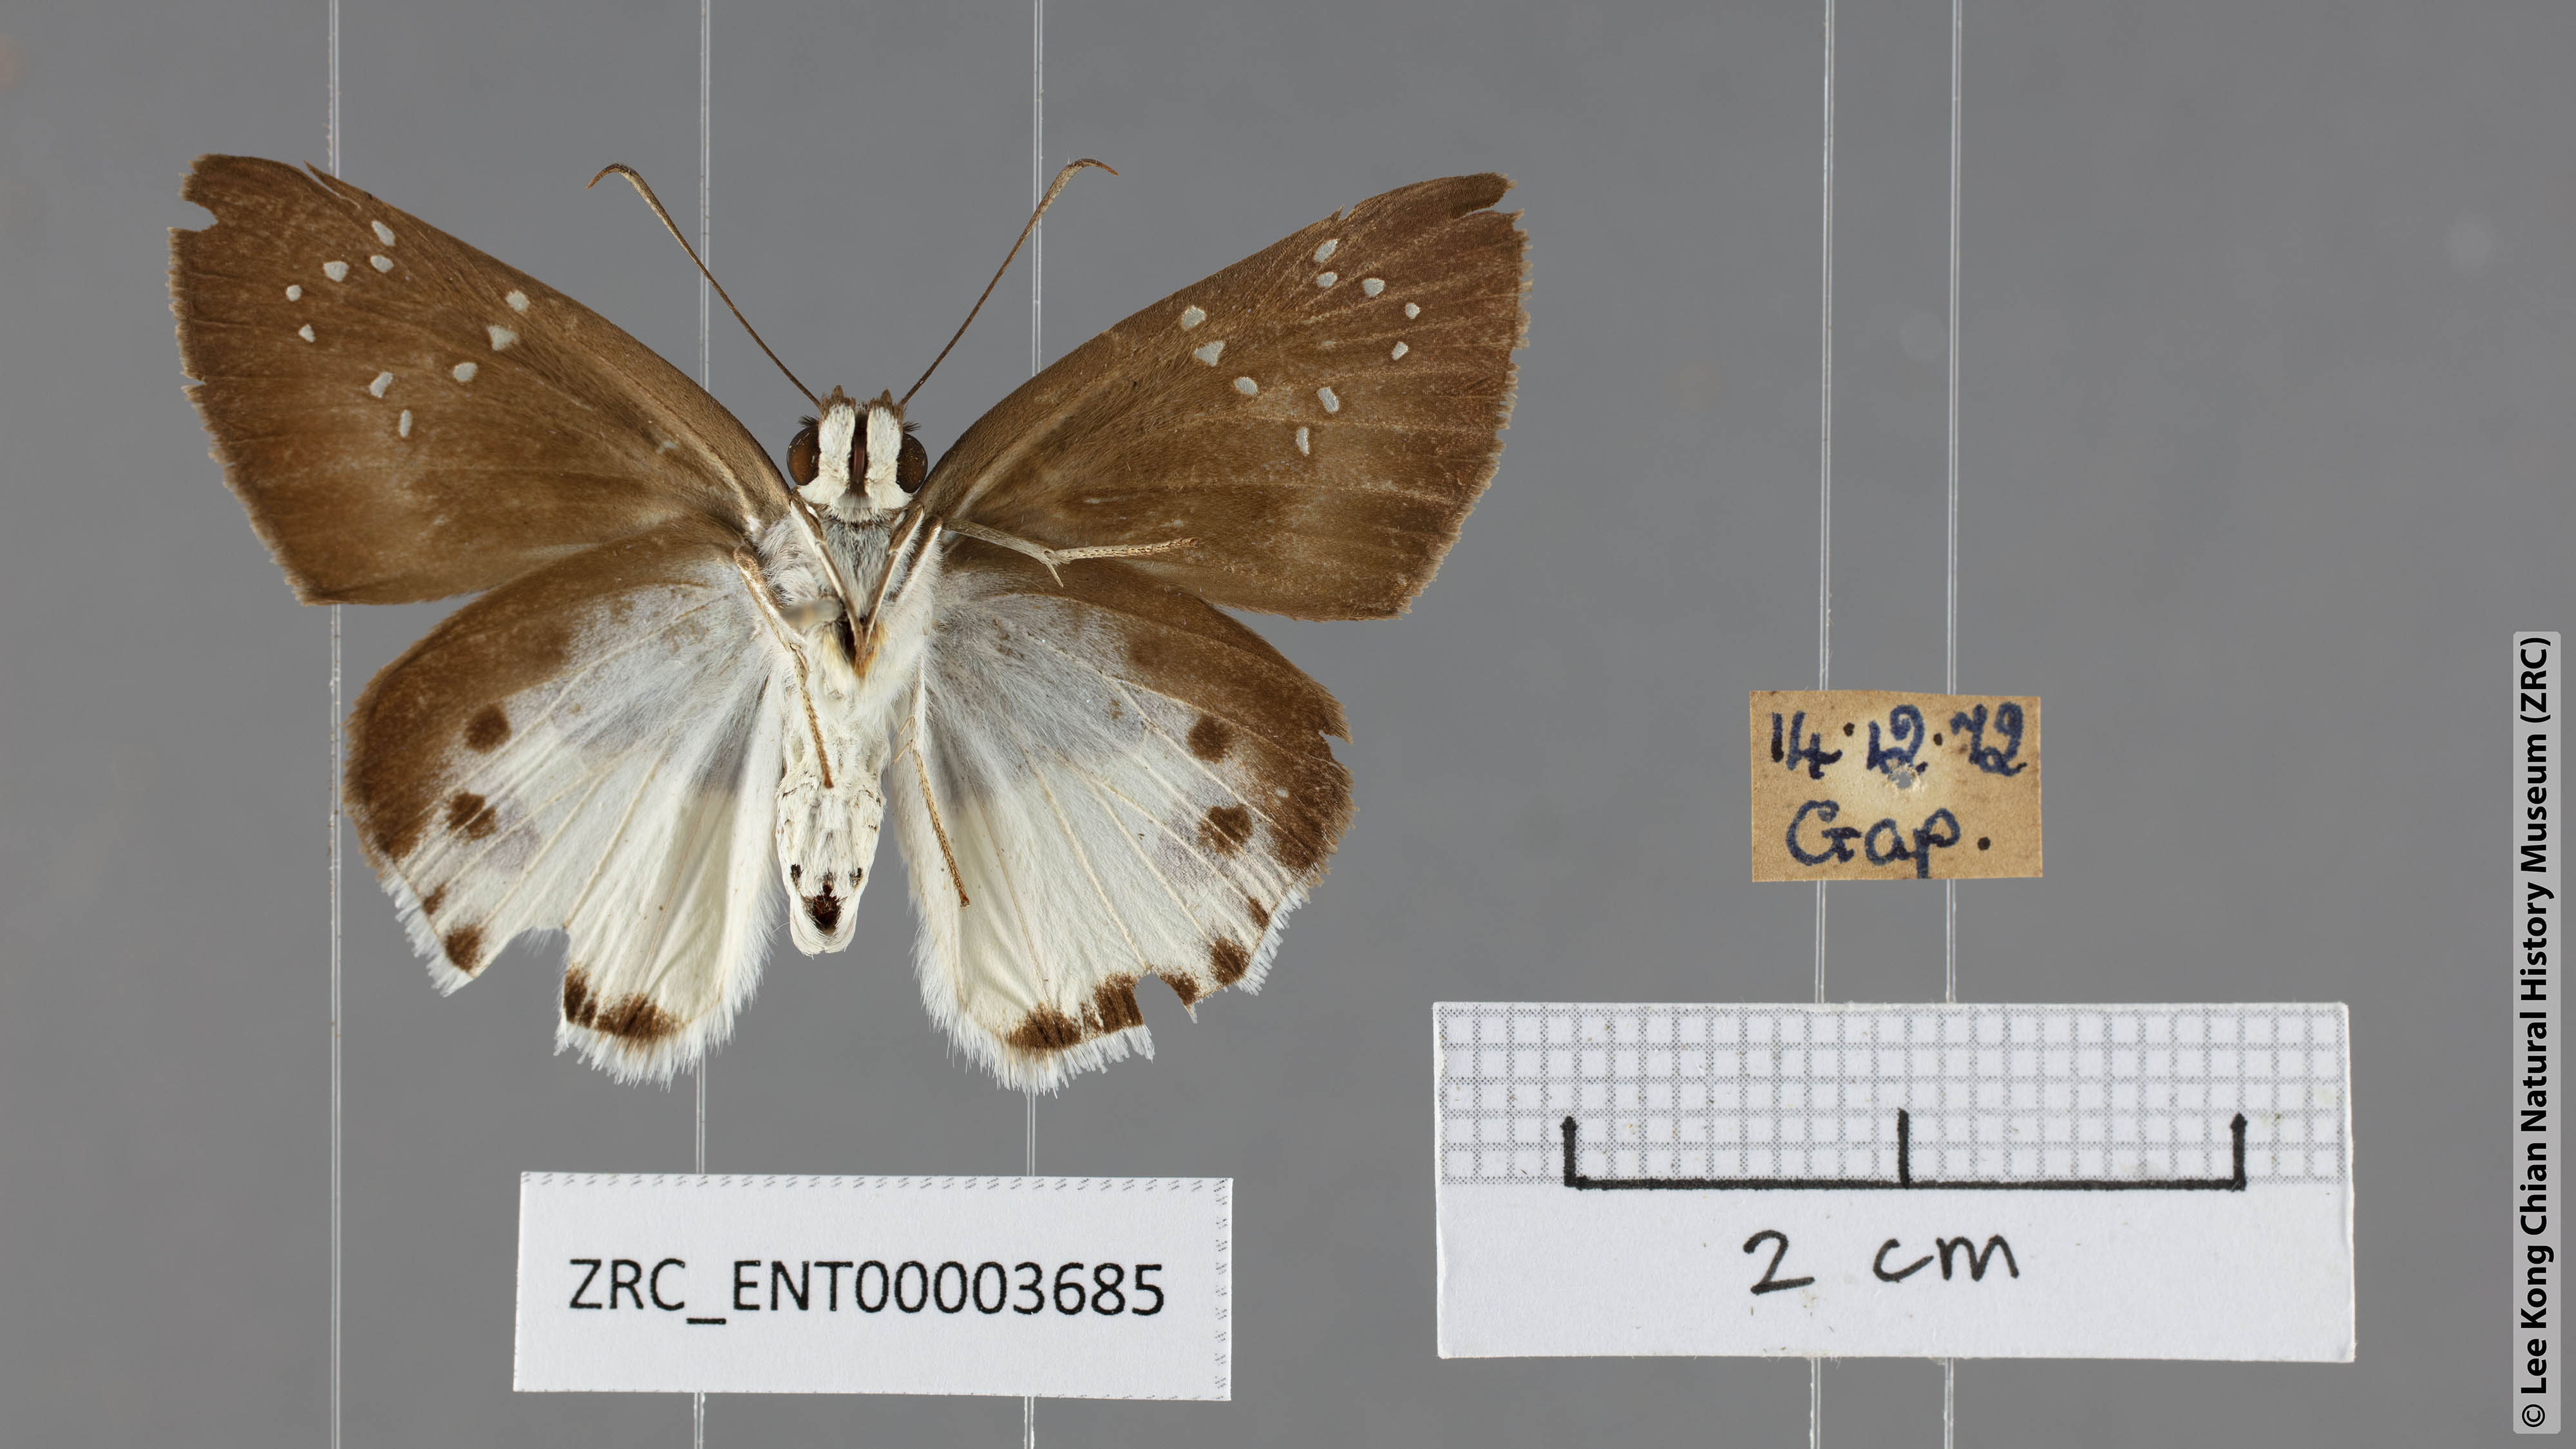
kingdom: Animalia
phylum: Arthropoda
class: Insecta
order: Lepidoptera
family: Hesperiidae
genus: Tagiades
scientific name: Tagiades calligana
